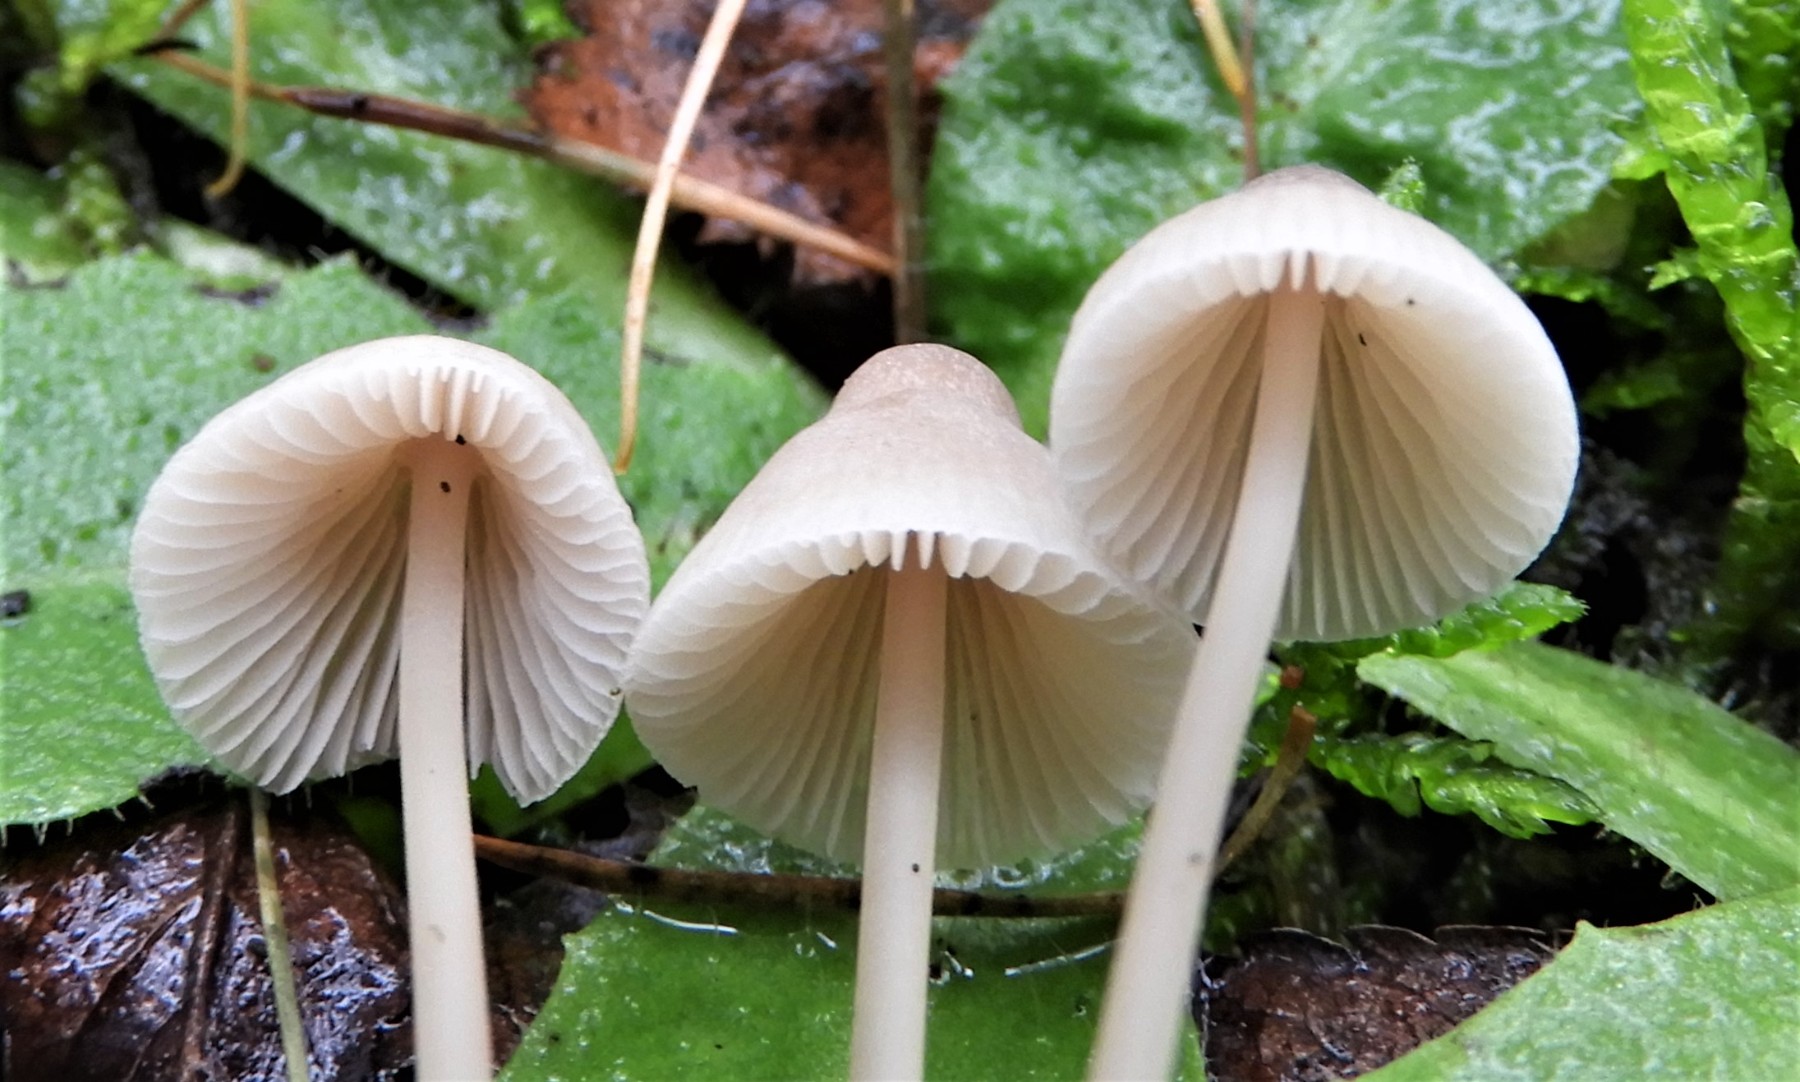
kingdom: Fungi
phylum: Basidiomycota
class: Agaricomycetes
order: Agaricales
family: Mycenaceae
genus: Mycena
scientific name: Mycena galericulata
